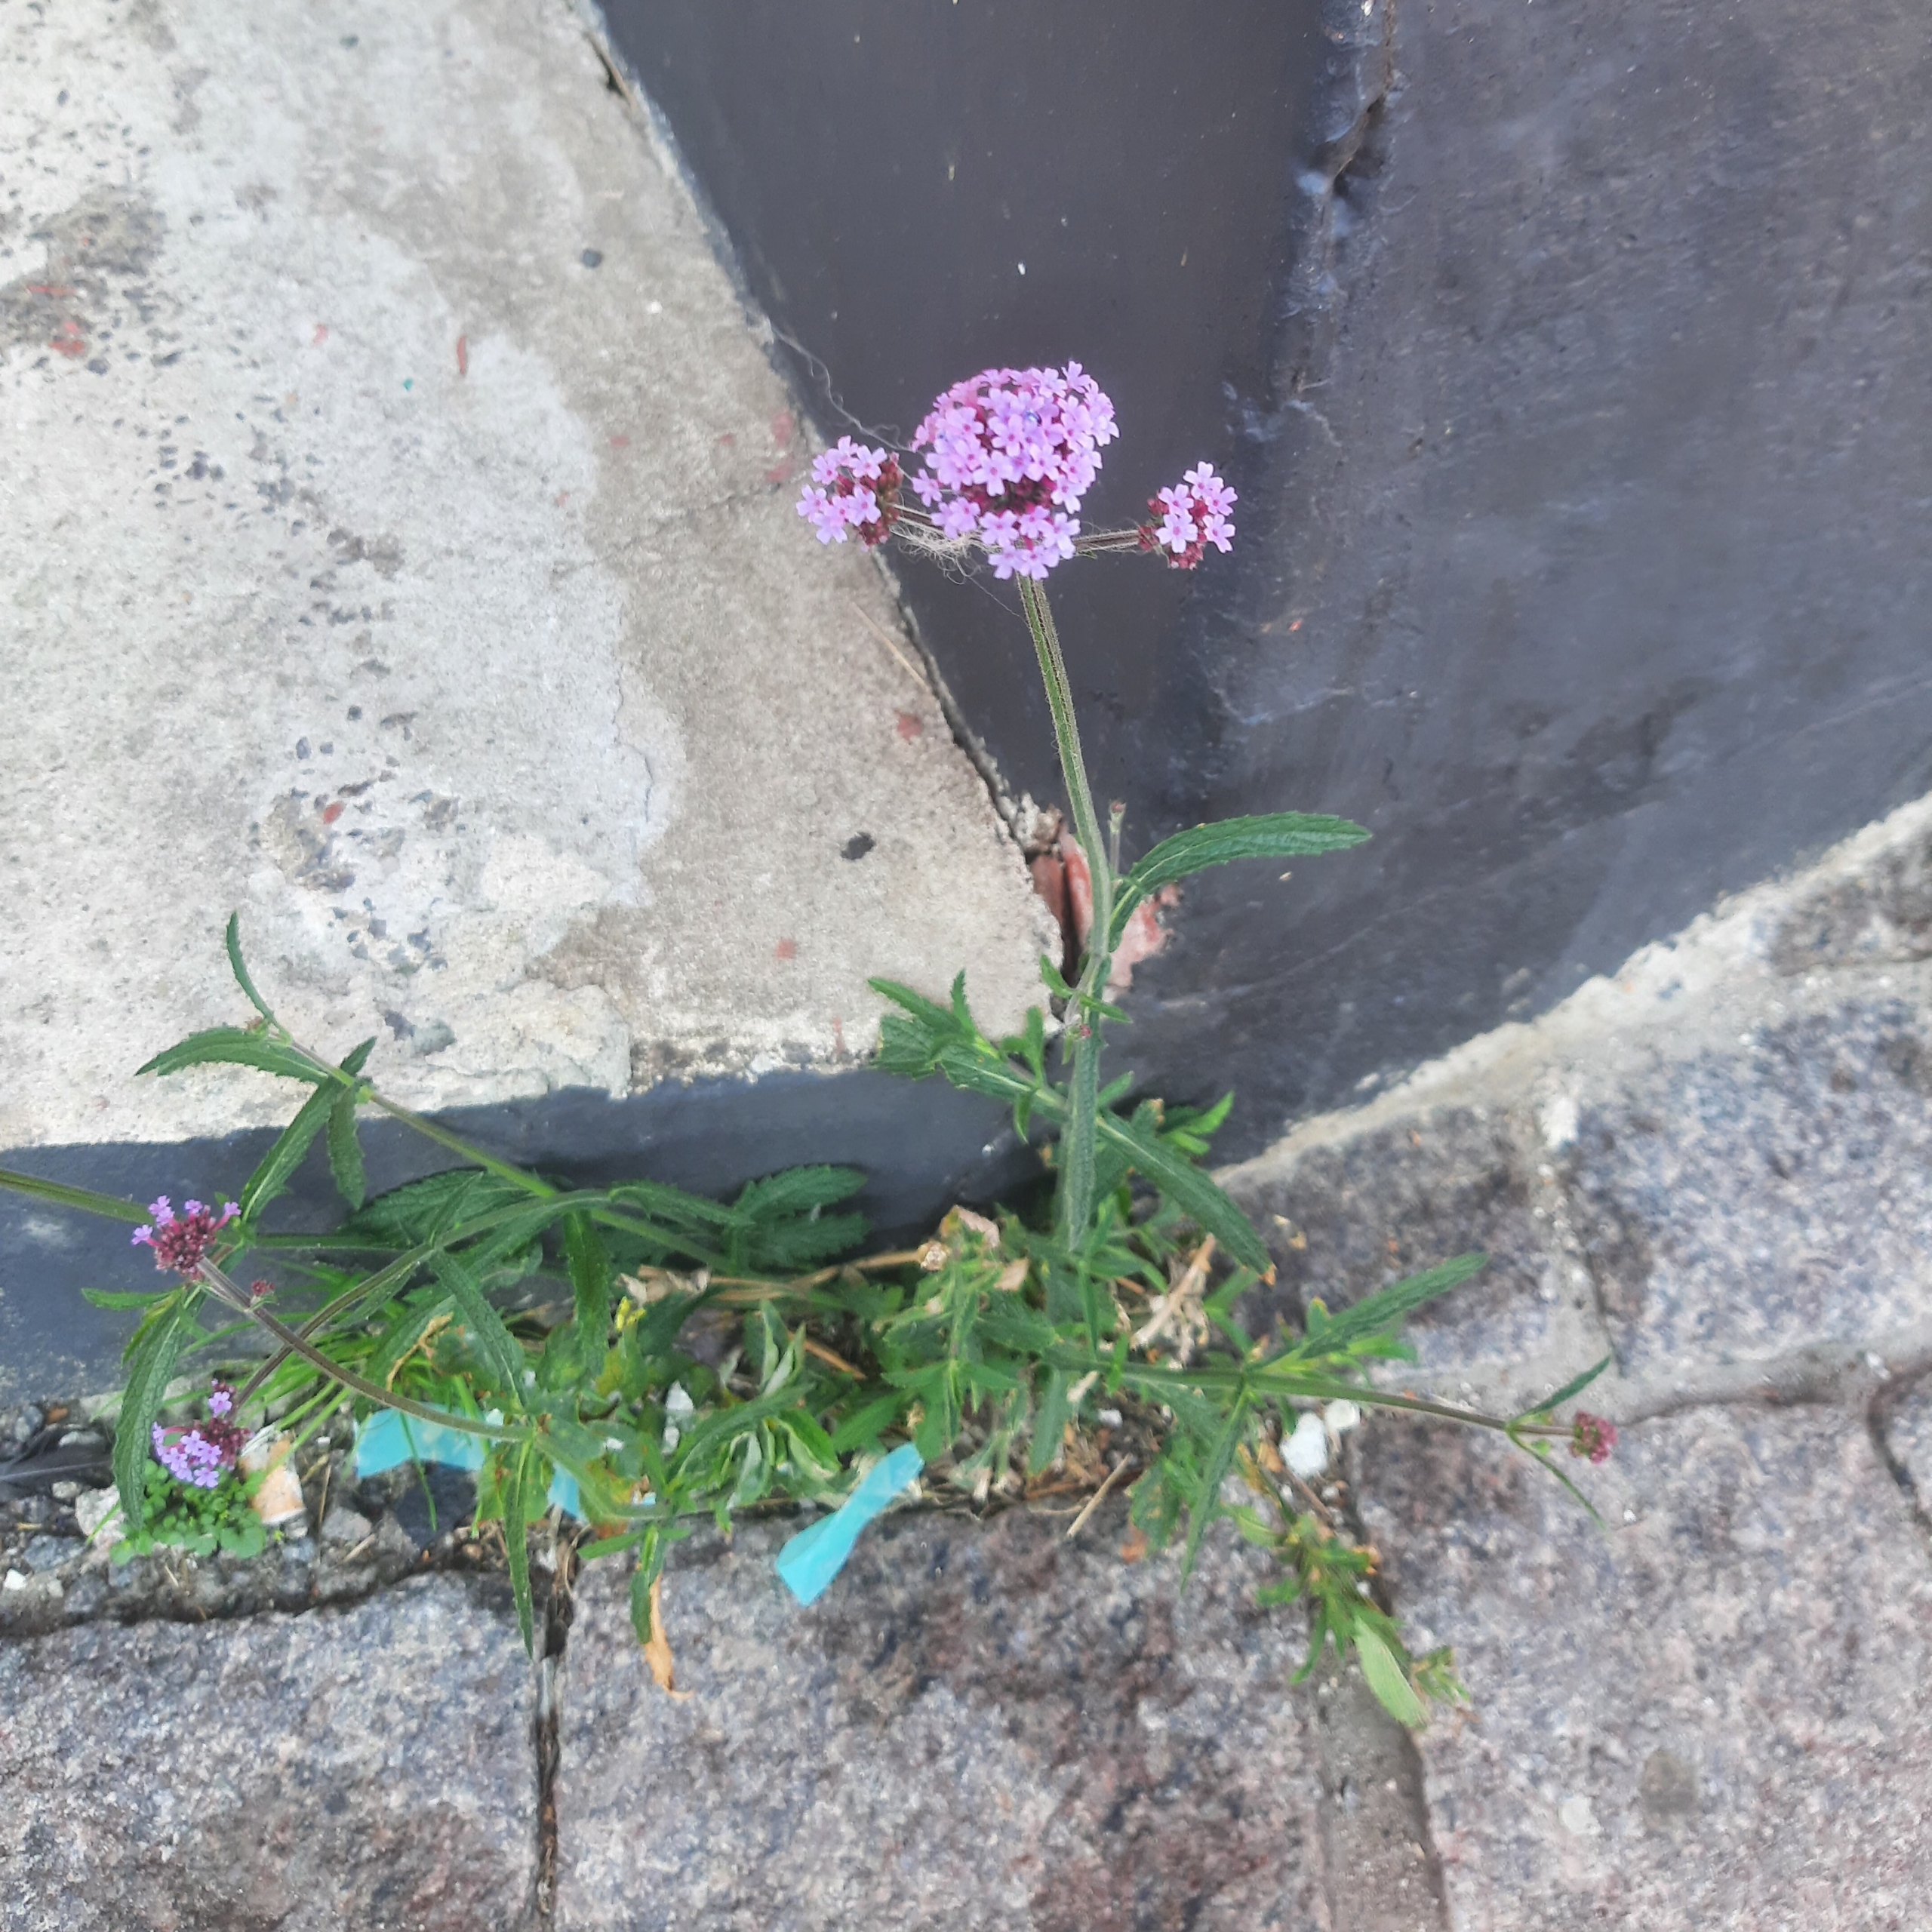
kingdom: Plantae
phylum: Tracheophyta
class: Magnoliopsida
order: Lamiales
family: Verbenaceae
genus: Verbena
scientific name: Verbena bonariensis
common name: Kæmpe-jernurt
